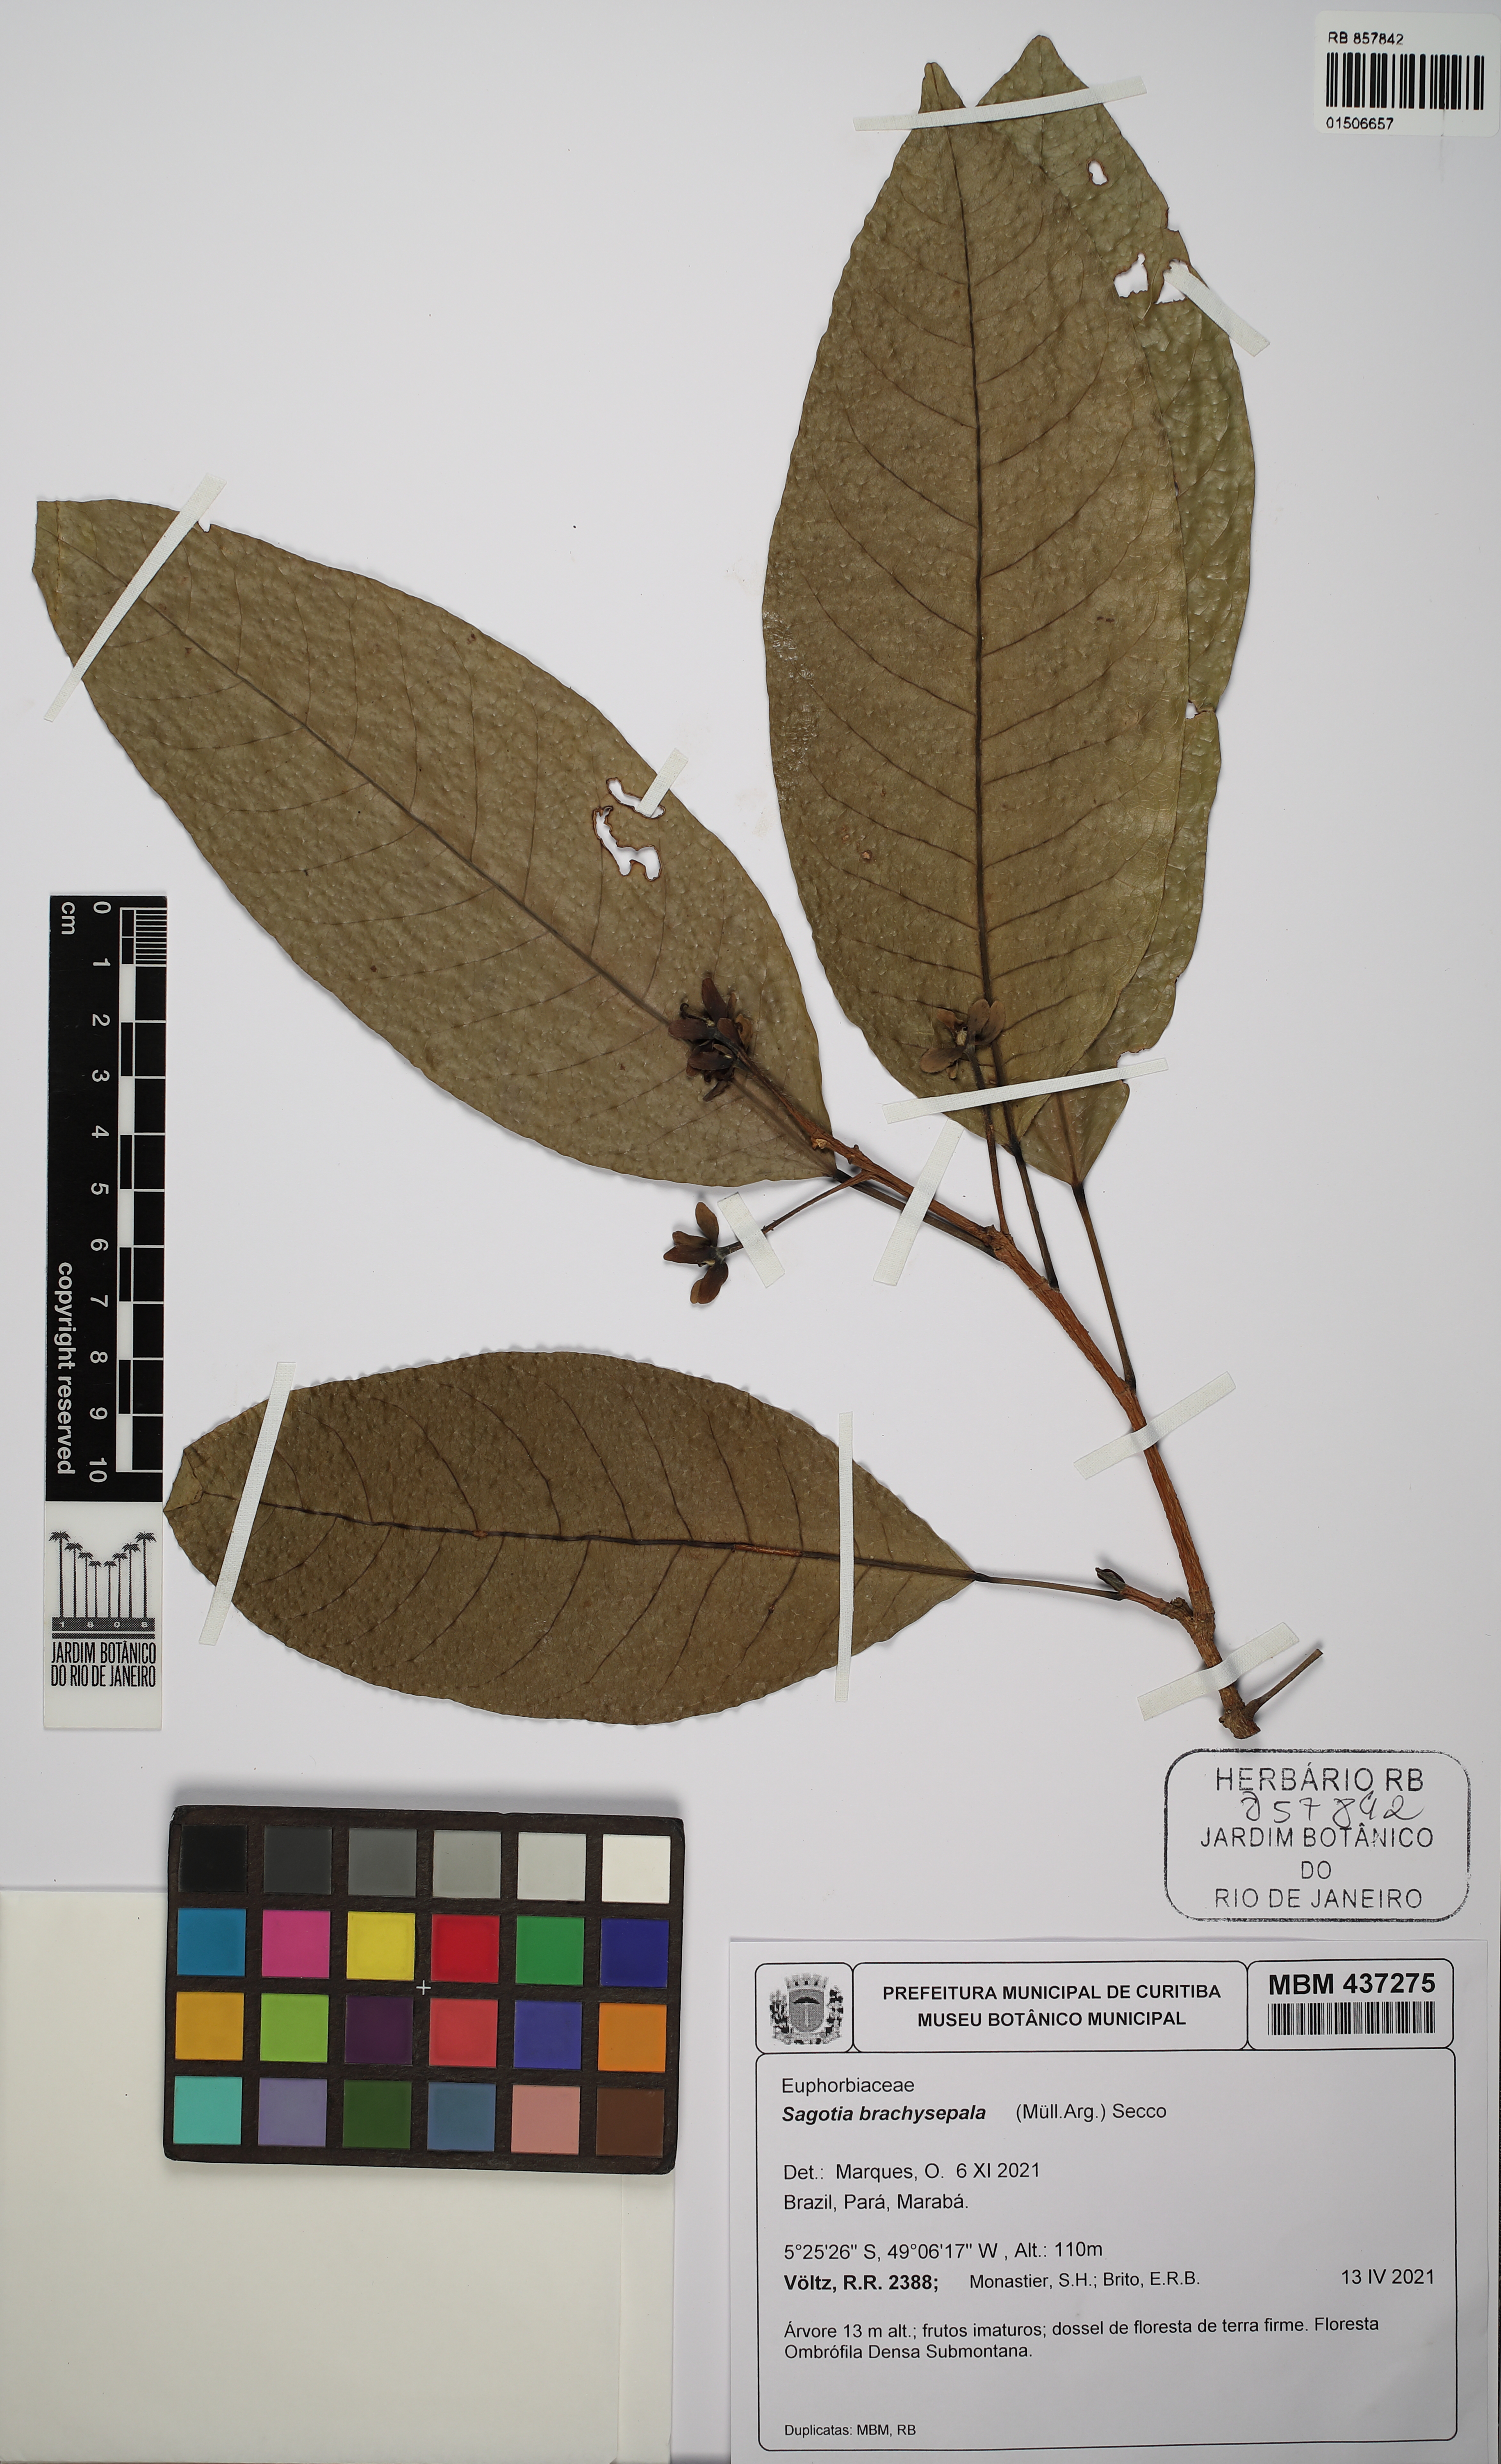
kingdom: Plantae
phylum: Tracheophyta
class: Magnoliopsida
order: Malpighiales
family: Euphorbiaceae
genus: Sagotia
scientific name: Sagotia brachysepala
